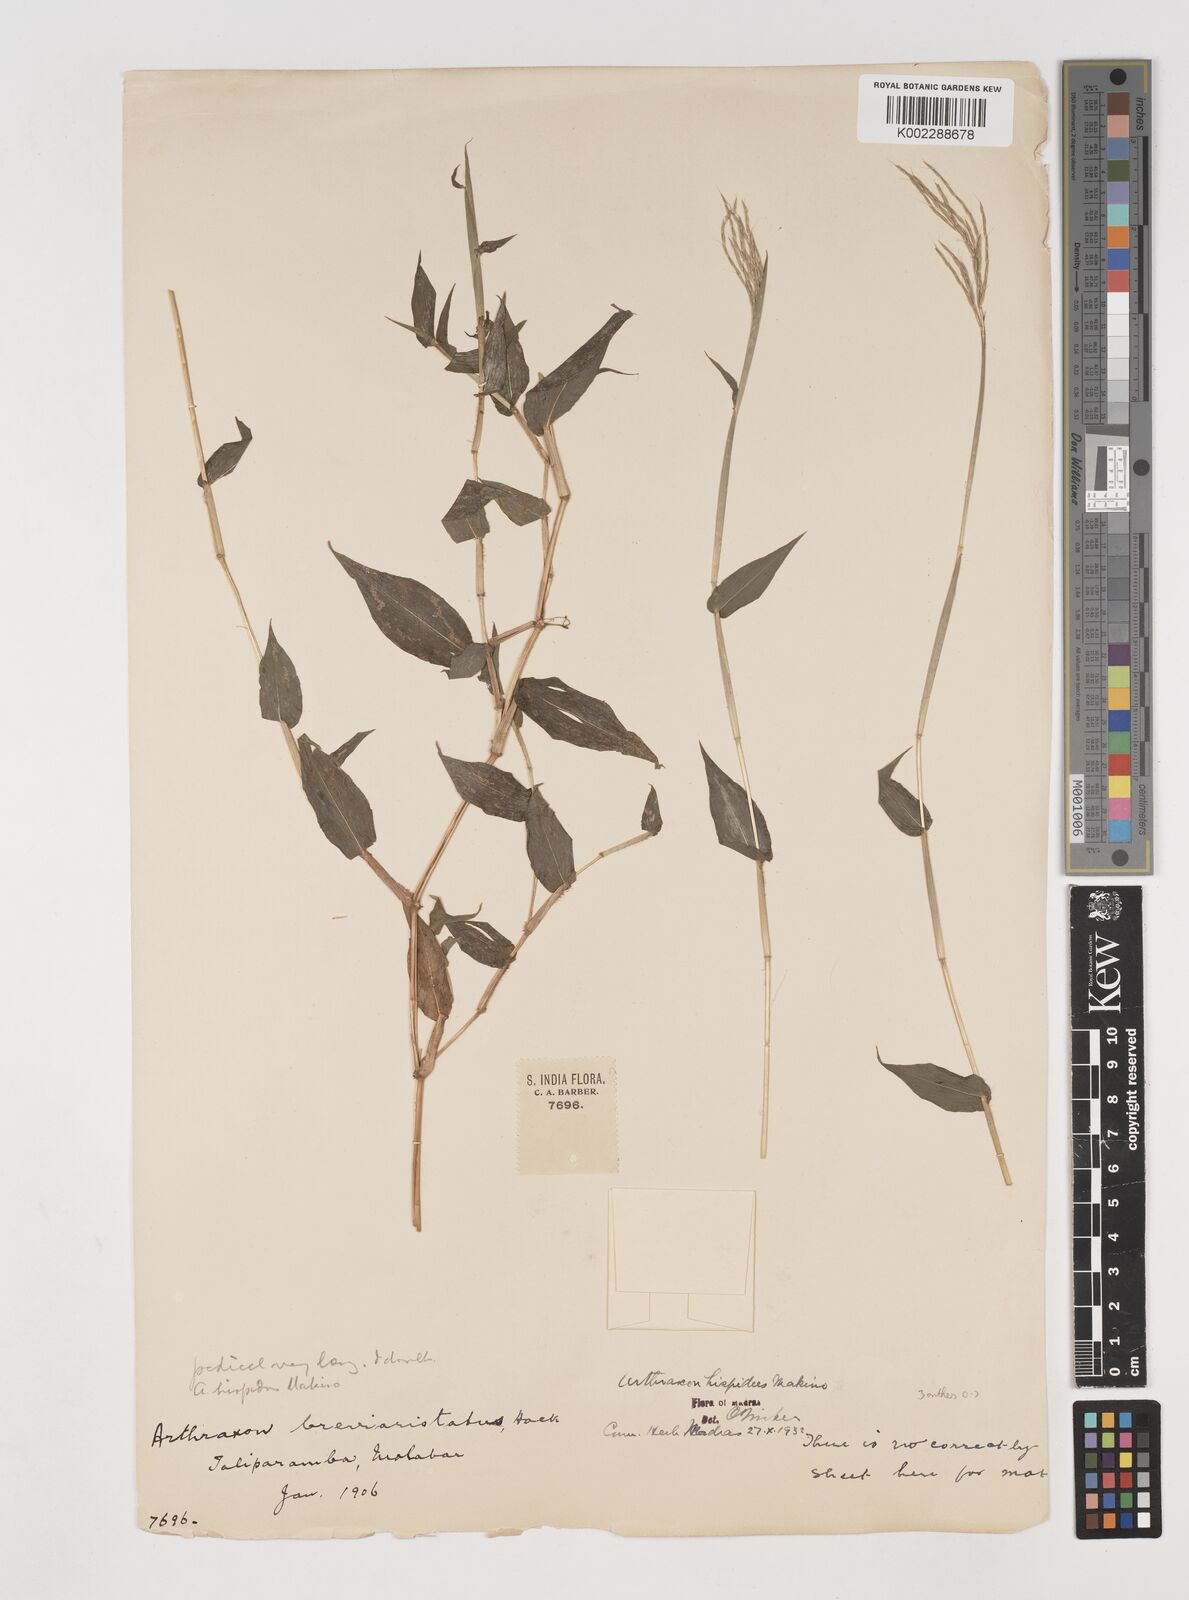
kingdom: Plantae
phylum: Tracheophyta
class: Liliopsida
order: Poales
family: Poaceae
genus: Arthraxon
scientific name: Arthraxon nudus
